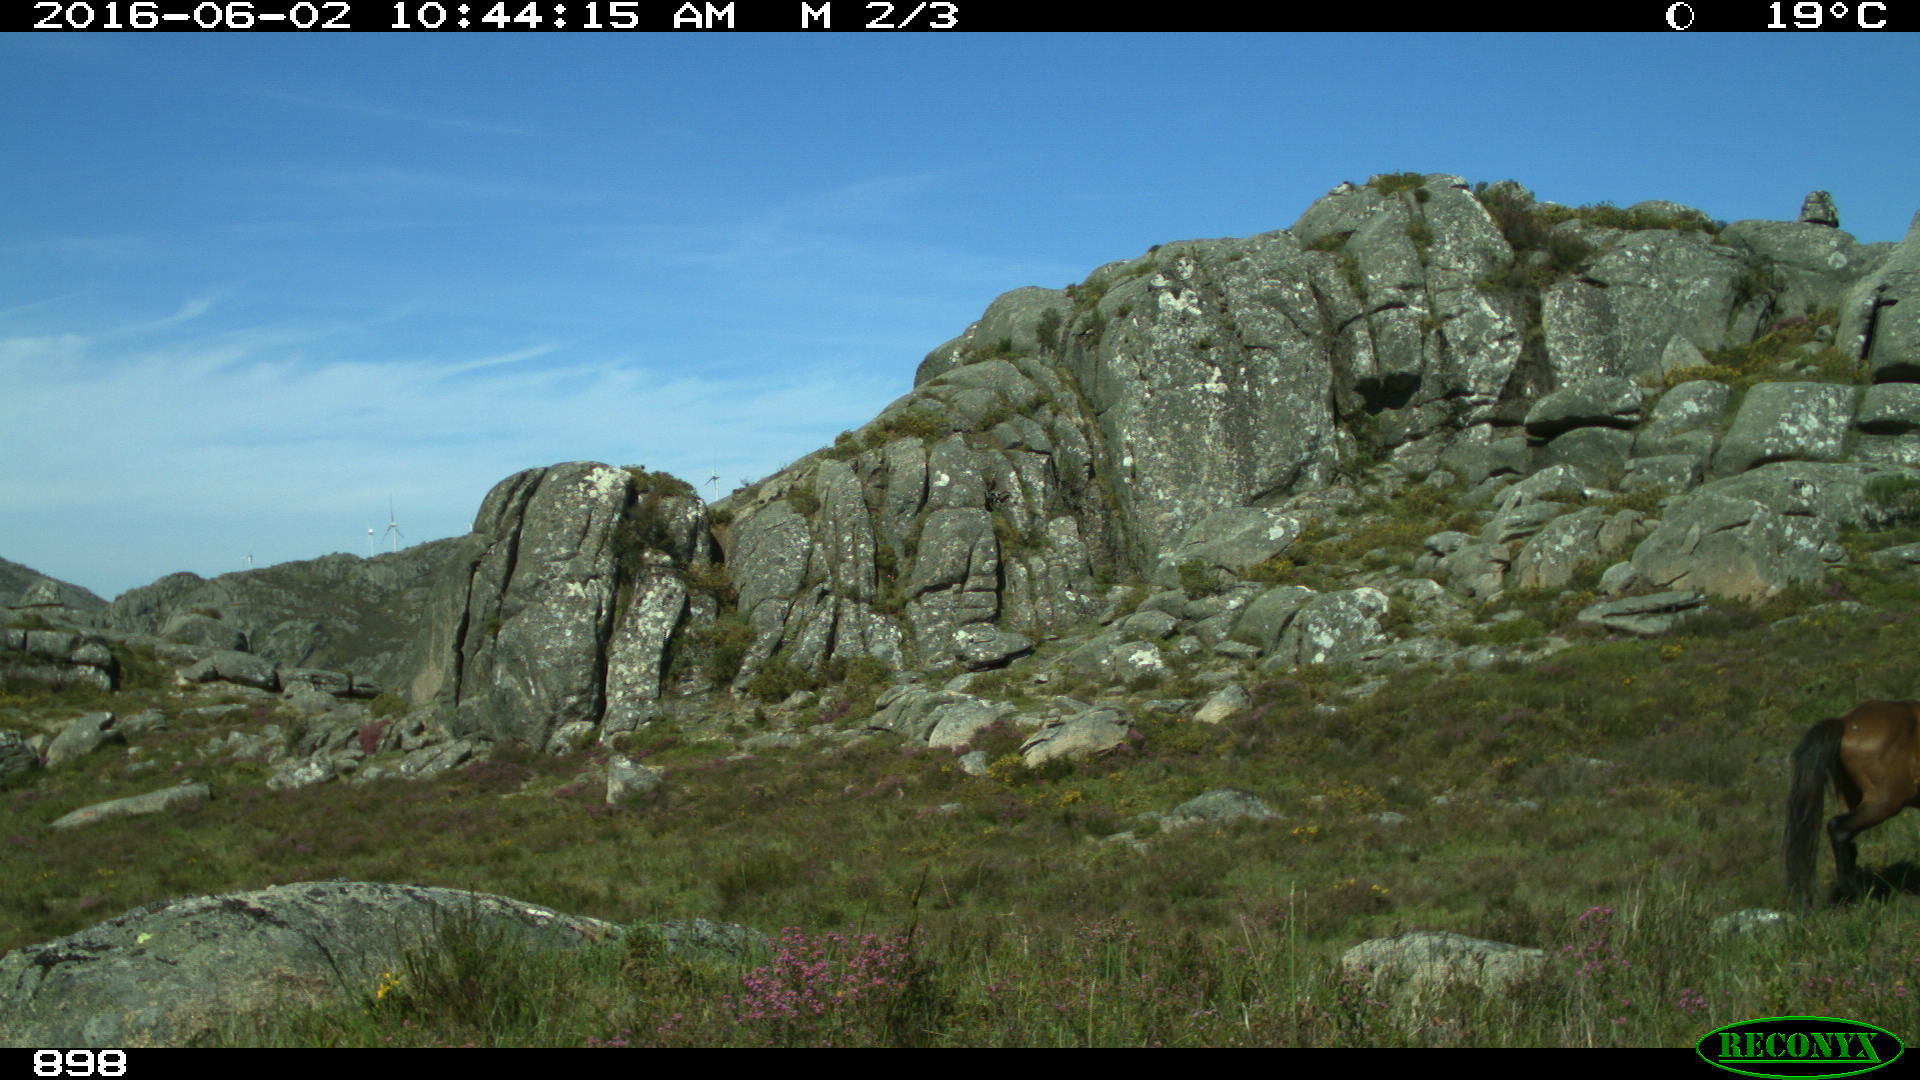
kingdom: Animalia
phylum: Chordata
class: Mammalia
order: Perissodactyla
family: Equidae
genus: Equus
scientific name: Equus caballus
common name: Horse
